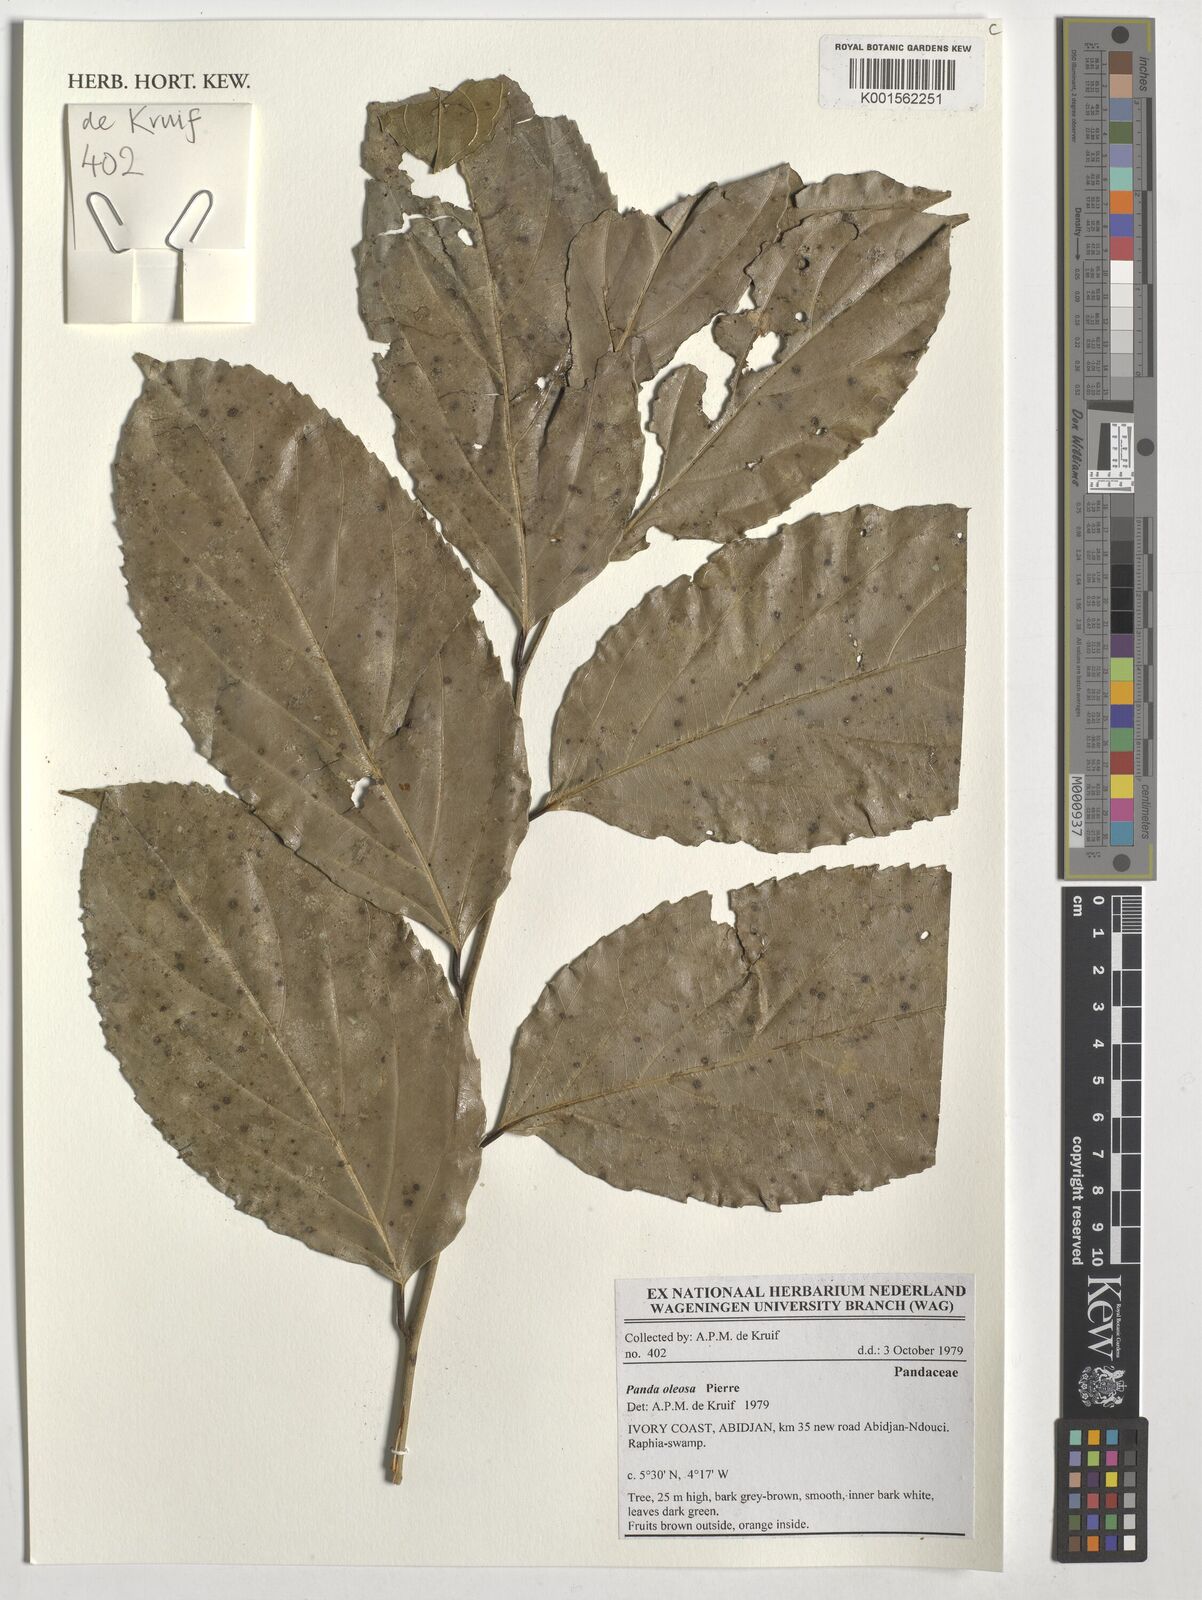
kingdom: Plantae
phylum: Tracheophyta
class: Magnoliopsida
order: Malpighiales
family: Pandaceae
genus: Panda
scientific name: Panda oleosa
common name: Panda
